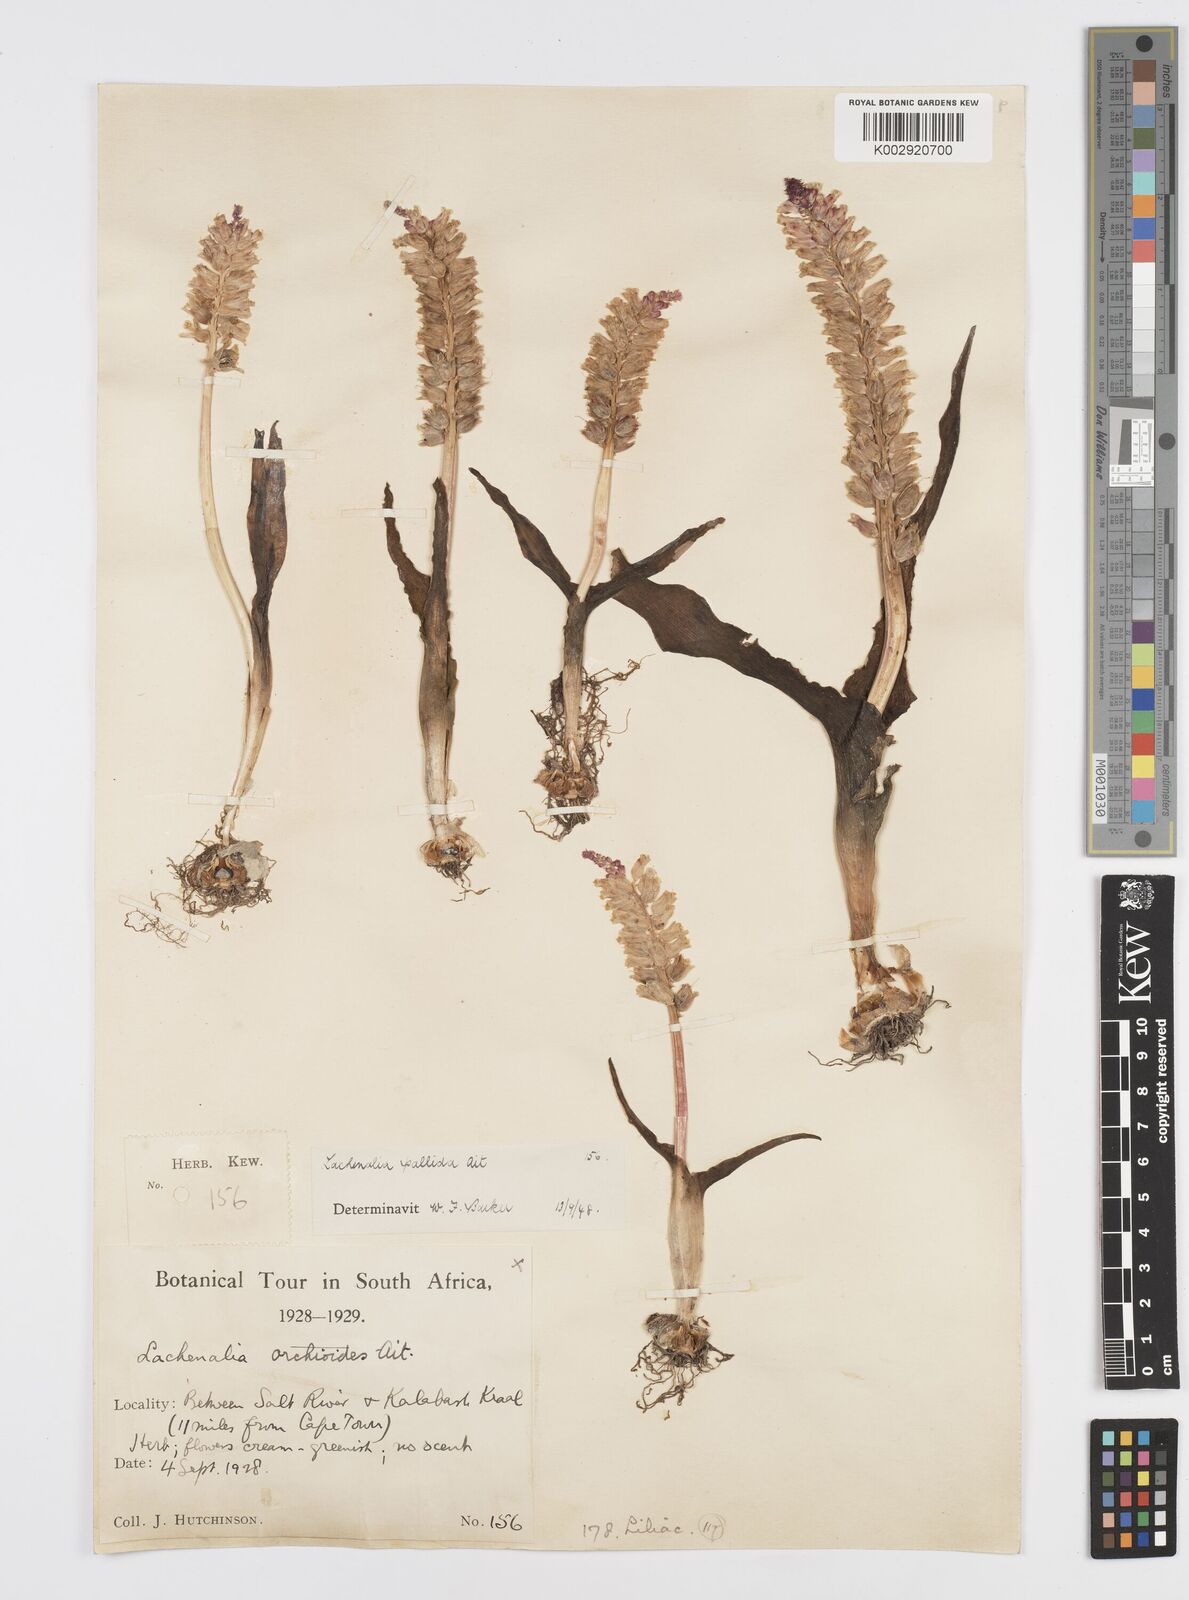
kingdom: Plantae
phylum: Tracheophyta
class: Liliopsida
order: Asparagales
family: Asparagaceae
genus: Lachenalia
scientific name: Lachenalia pallida
